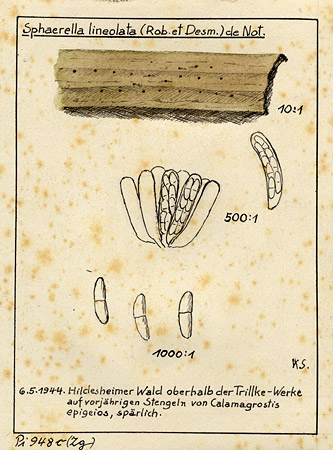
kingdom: Plantae
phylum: Tracheophyta
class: Liliopsida
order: Poales
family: Poaceae
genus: Calamagrostis
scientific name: Calamagrostis epigeios
